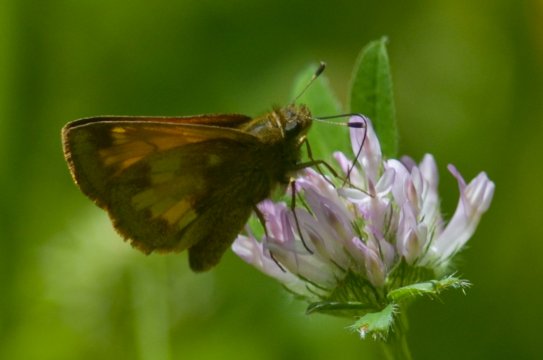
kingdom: Animalia
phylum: Arthropoda
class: Insecta
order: Lepidoptera
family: Hesperiidae
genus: Lon
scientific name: Lon hobomok
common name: Hobomok Skipper
